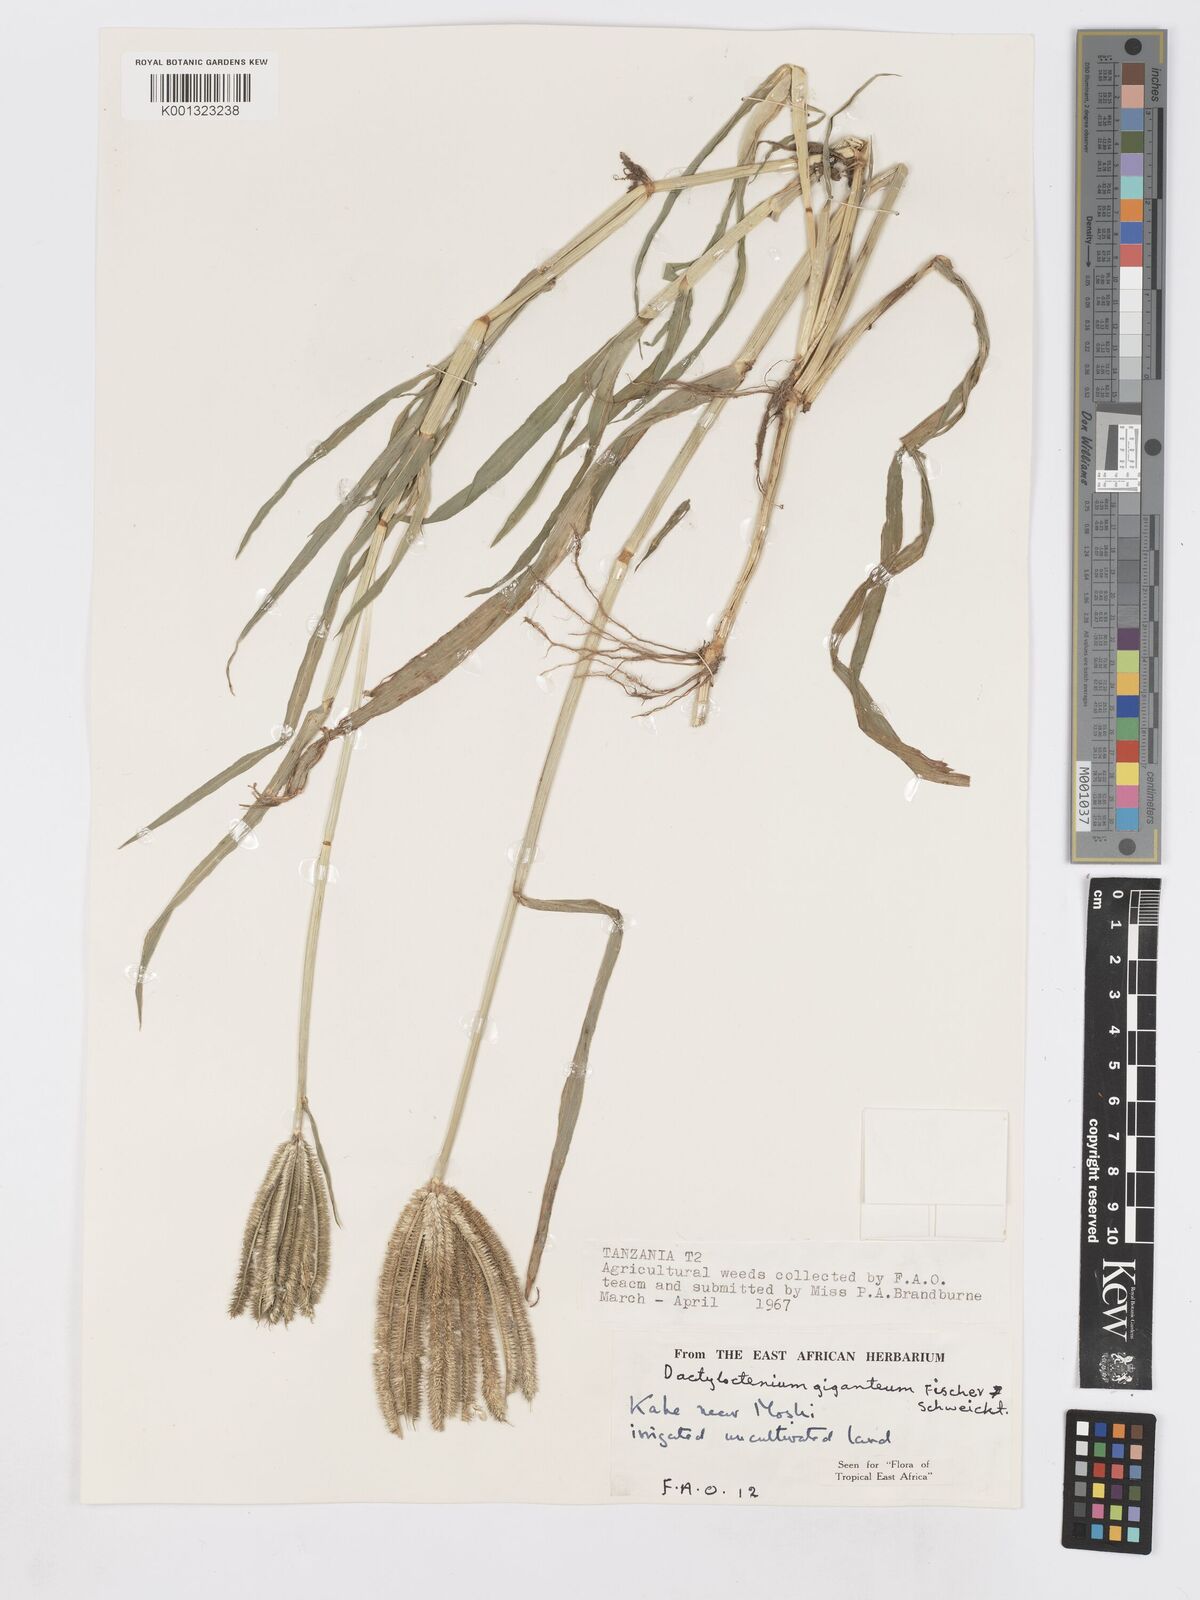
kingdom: Plantae
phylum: Tracheophyta
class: Liliopsida
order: Poales
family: Poaceae
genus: Dactyloctenium
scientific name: Dactyloctenium giganteum
